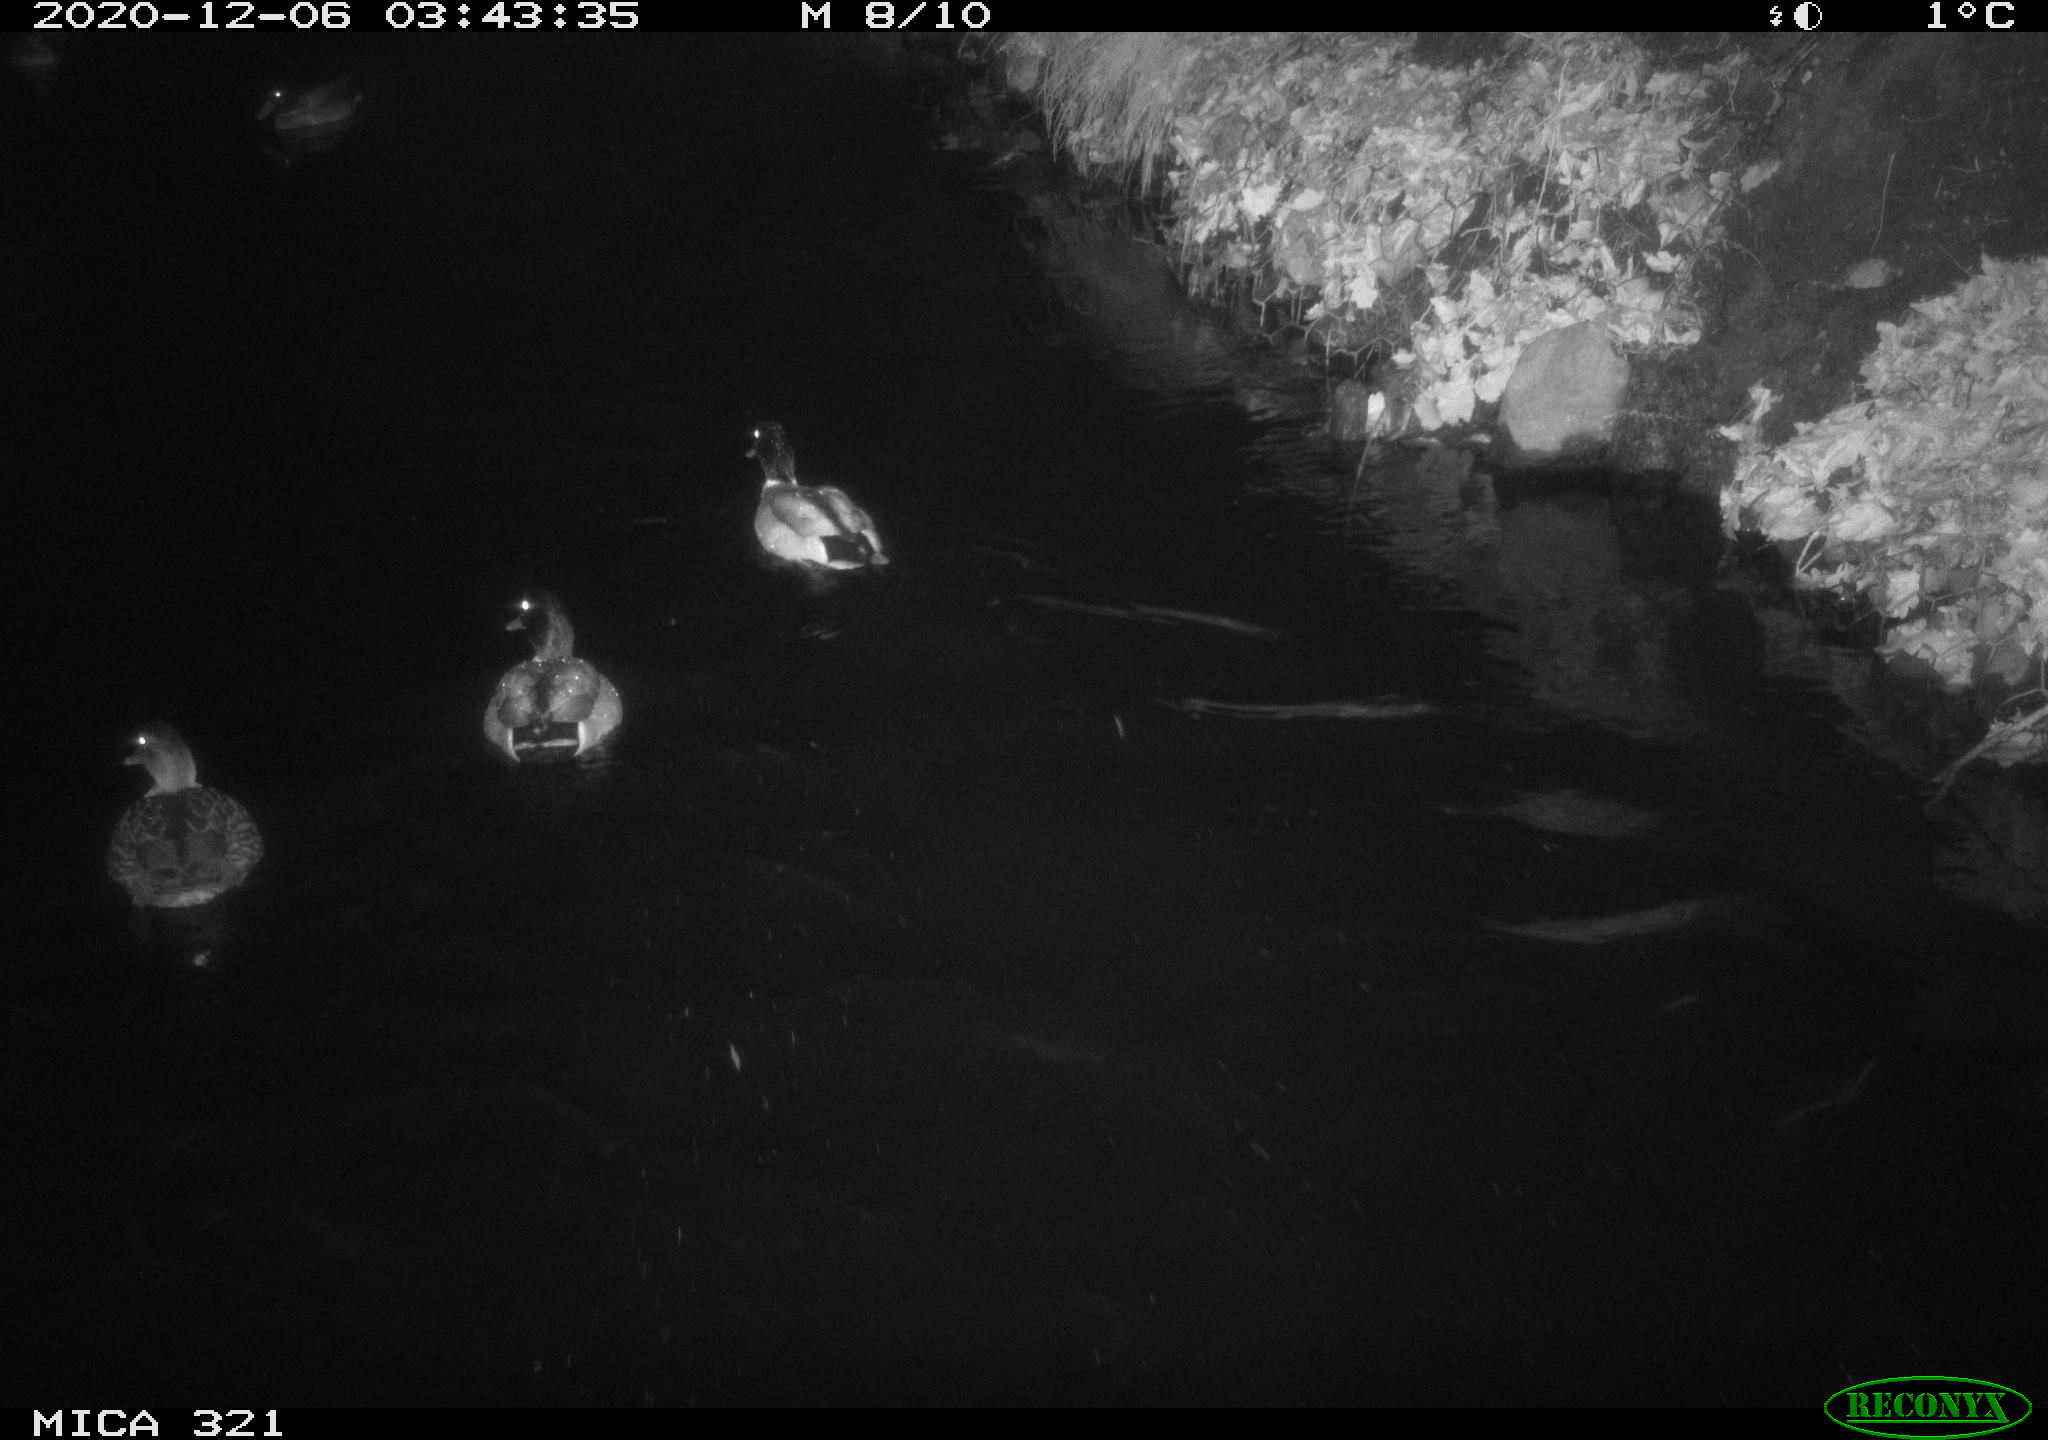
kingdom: Animalia
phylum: Chordata
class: Aves
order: Anseriformes
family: Anatidae
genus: Anas
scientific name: Anas platyrhynchos
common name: Mallard
